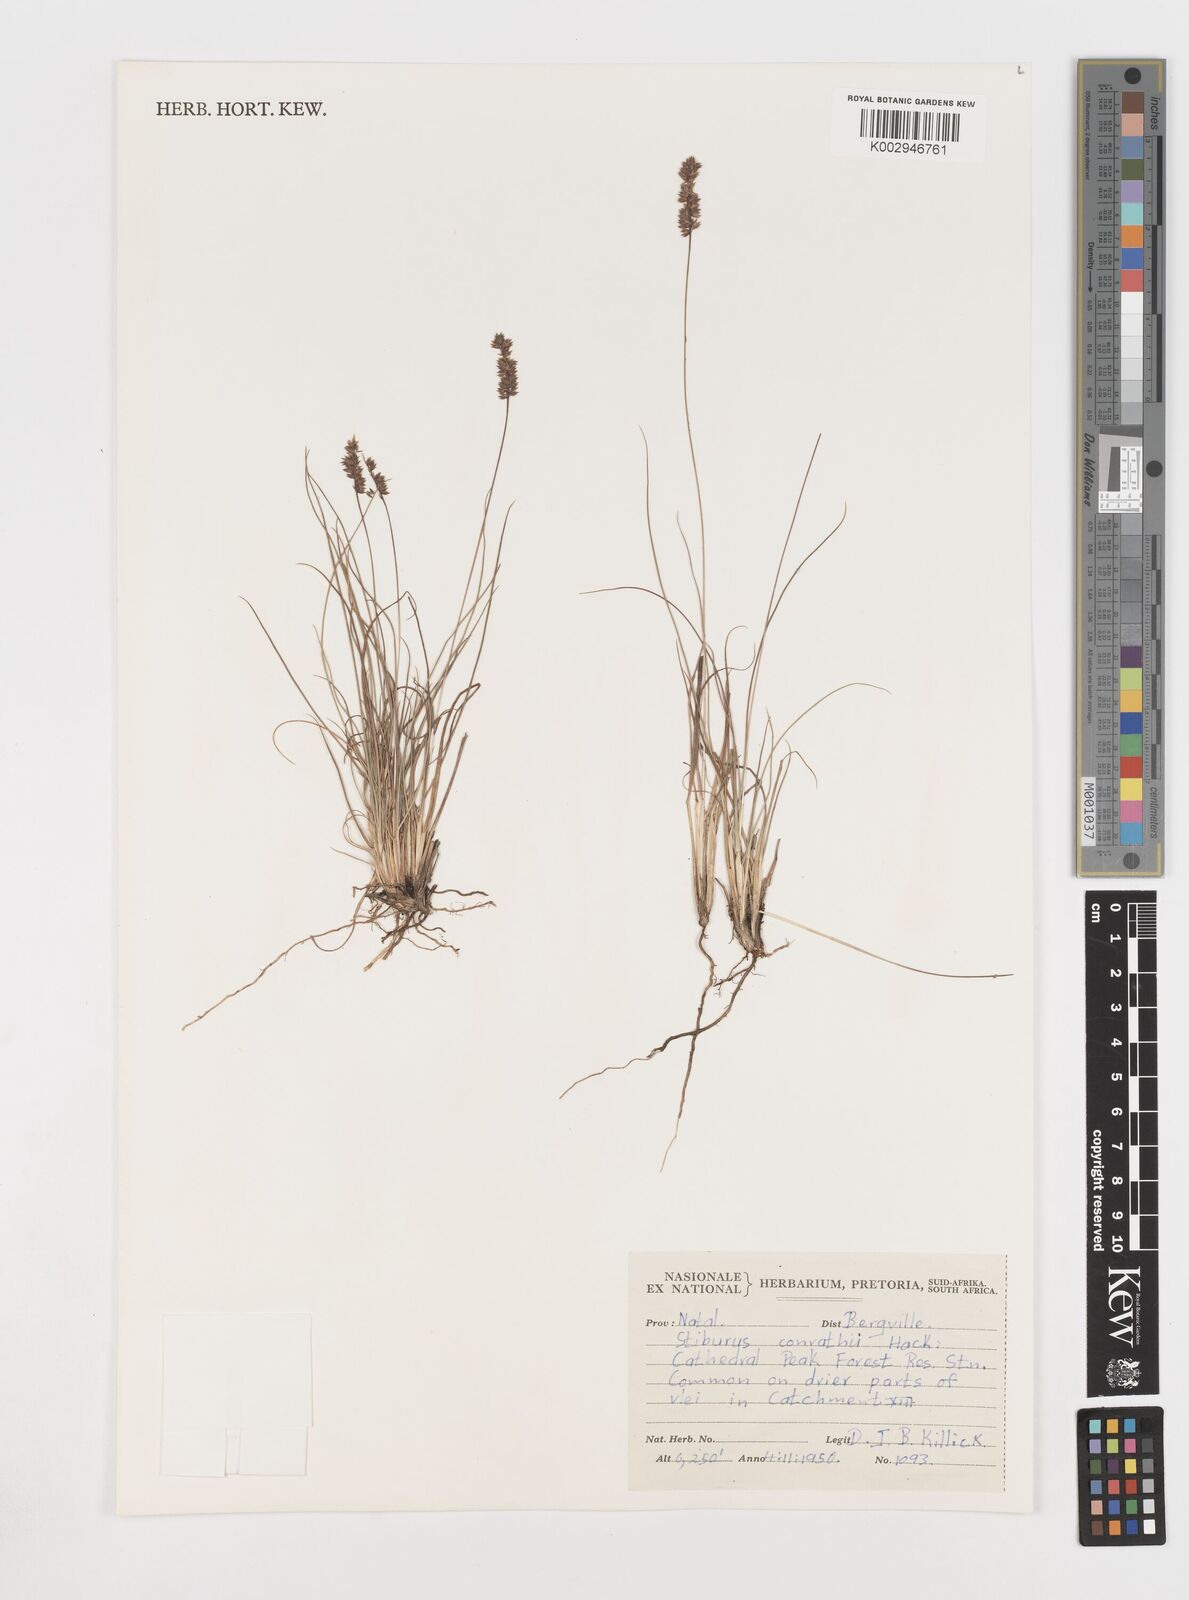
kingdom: Plantae
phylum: Tracheophyta
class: Liliopsida
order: Poales
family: Poaceae
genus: Stiburus
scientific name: Stiburus conrathii
